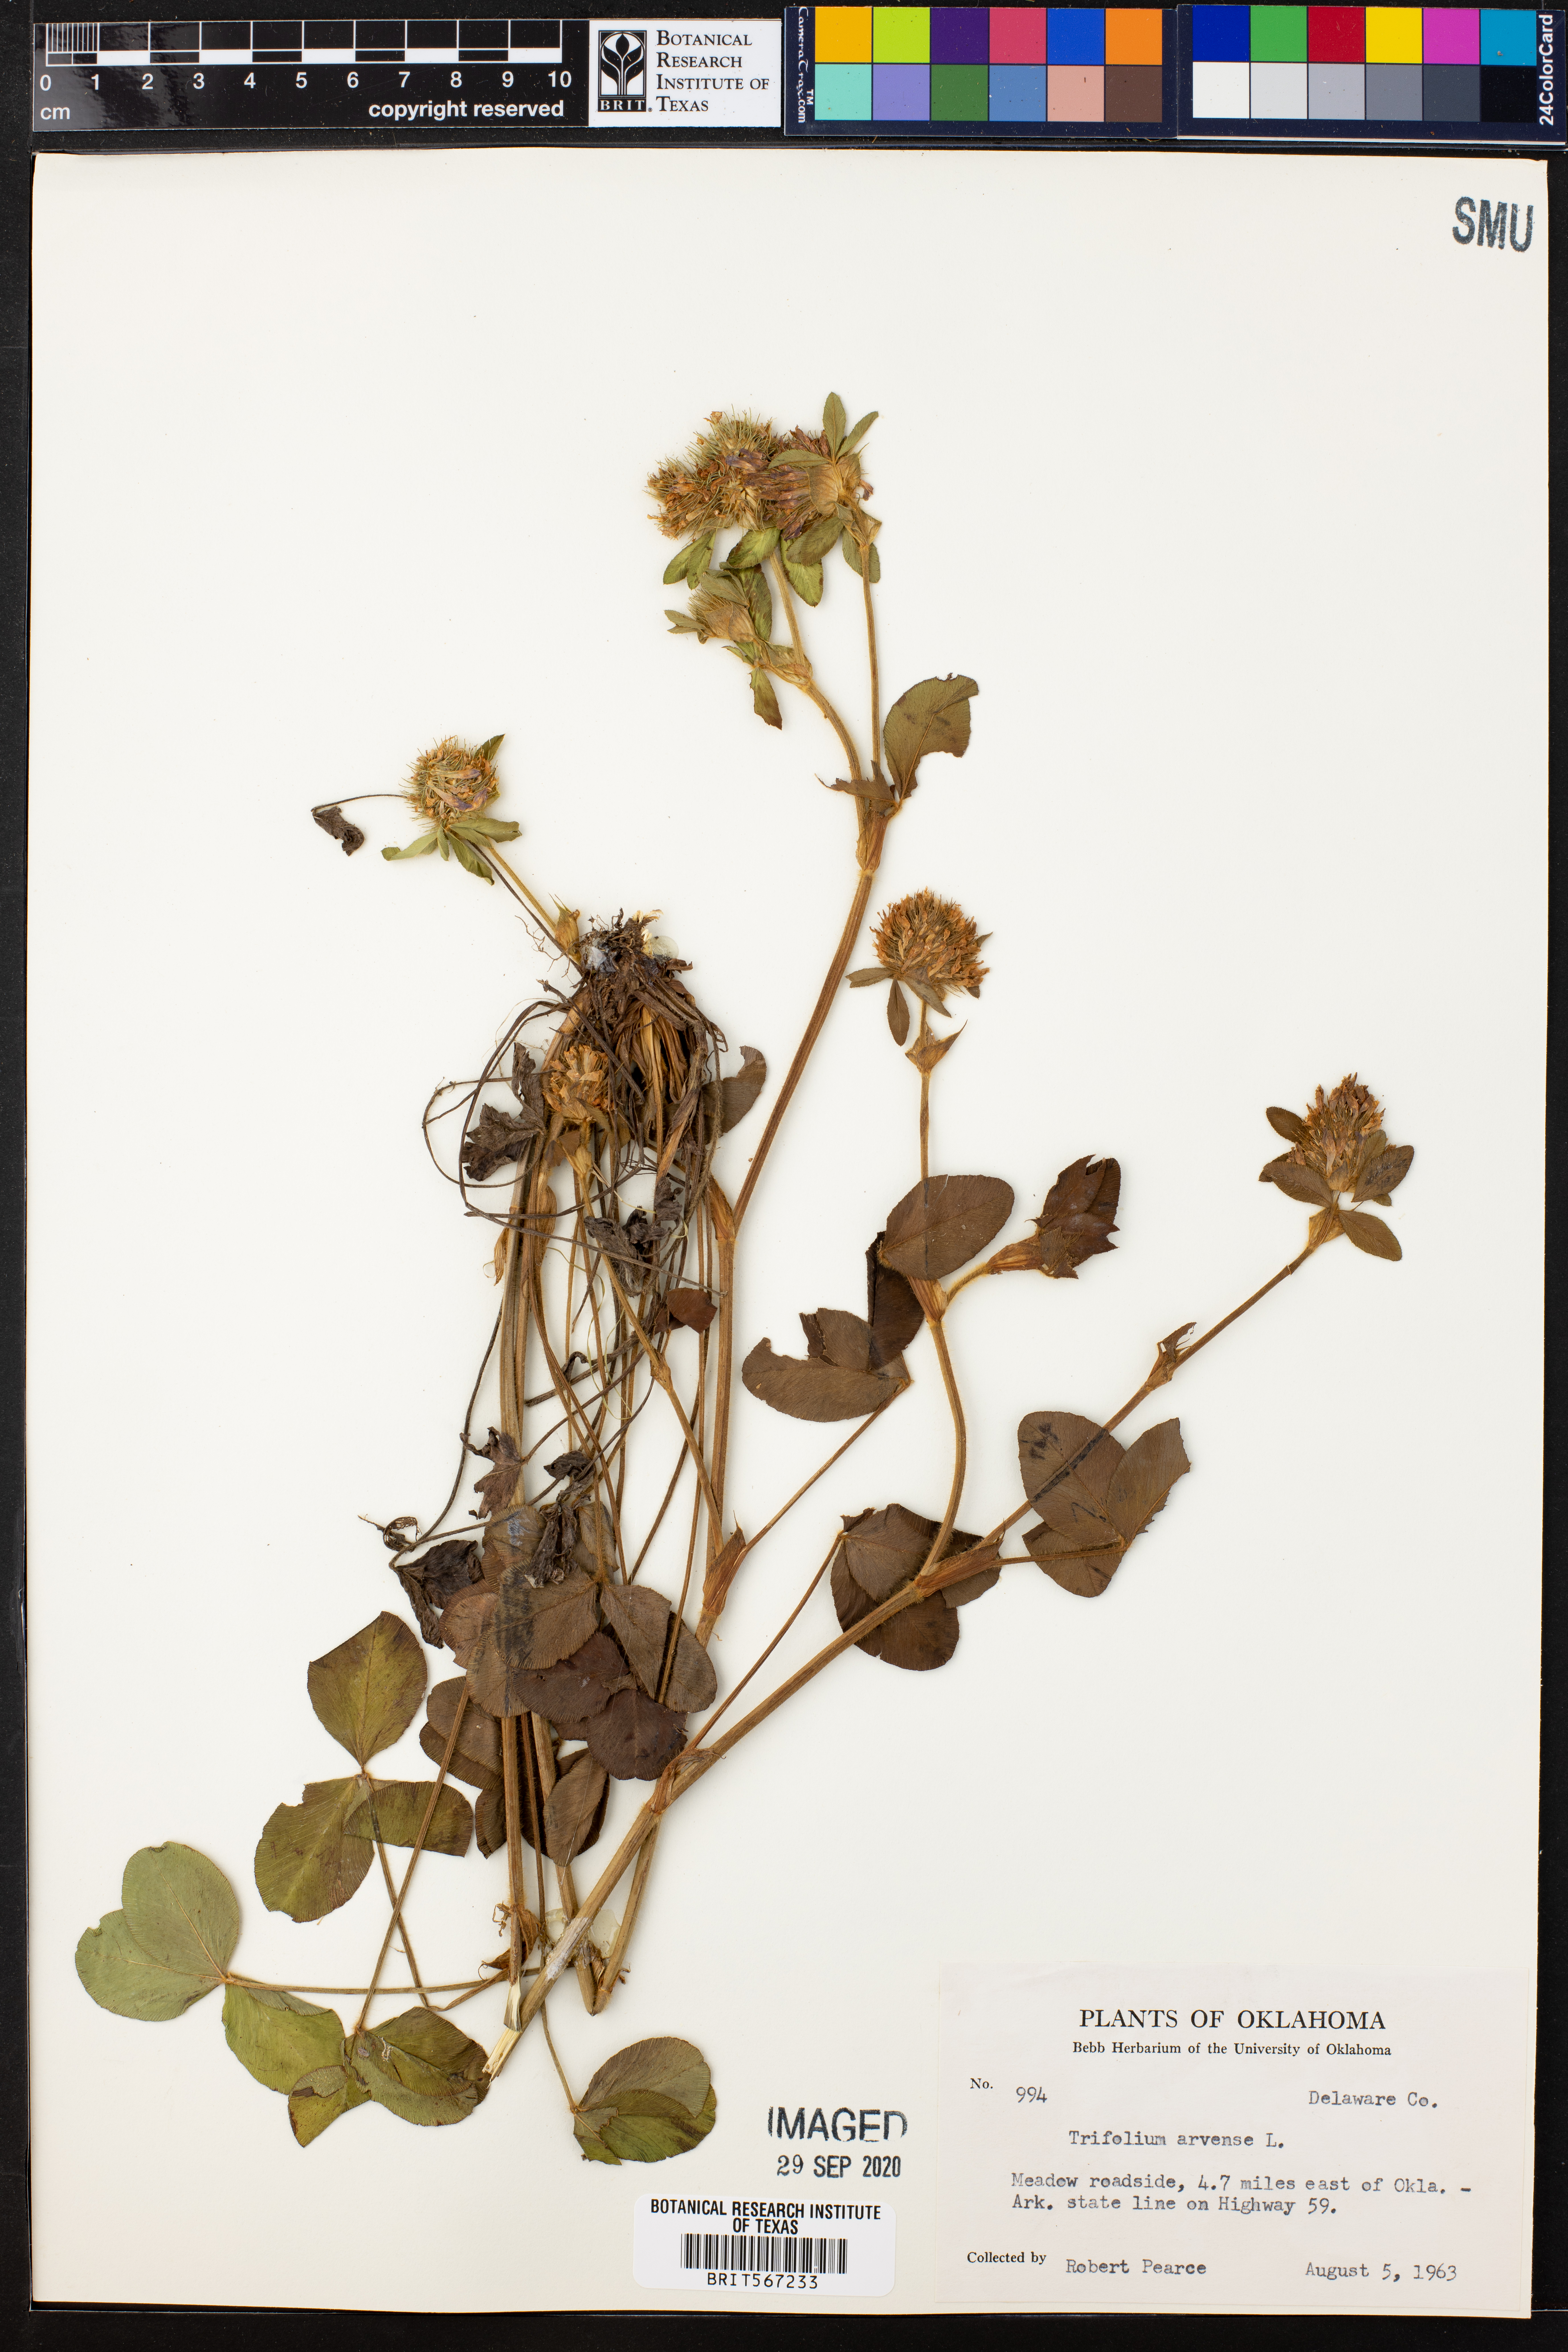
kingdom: Plantae
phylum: Tracheophyta
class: Magnoliopsida
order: Fabales
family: Fabaceae
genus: Trifolium
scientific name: Trifolium arvense
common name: Hare's-foot clover
